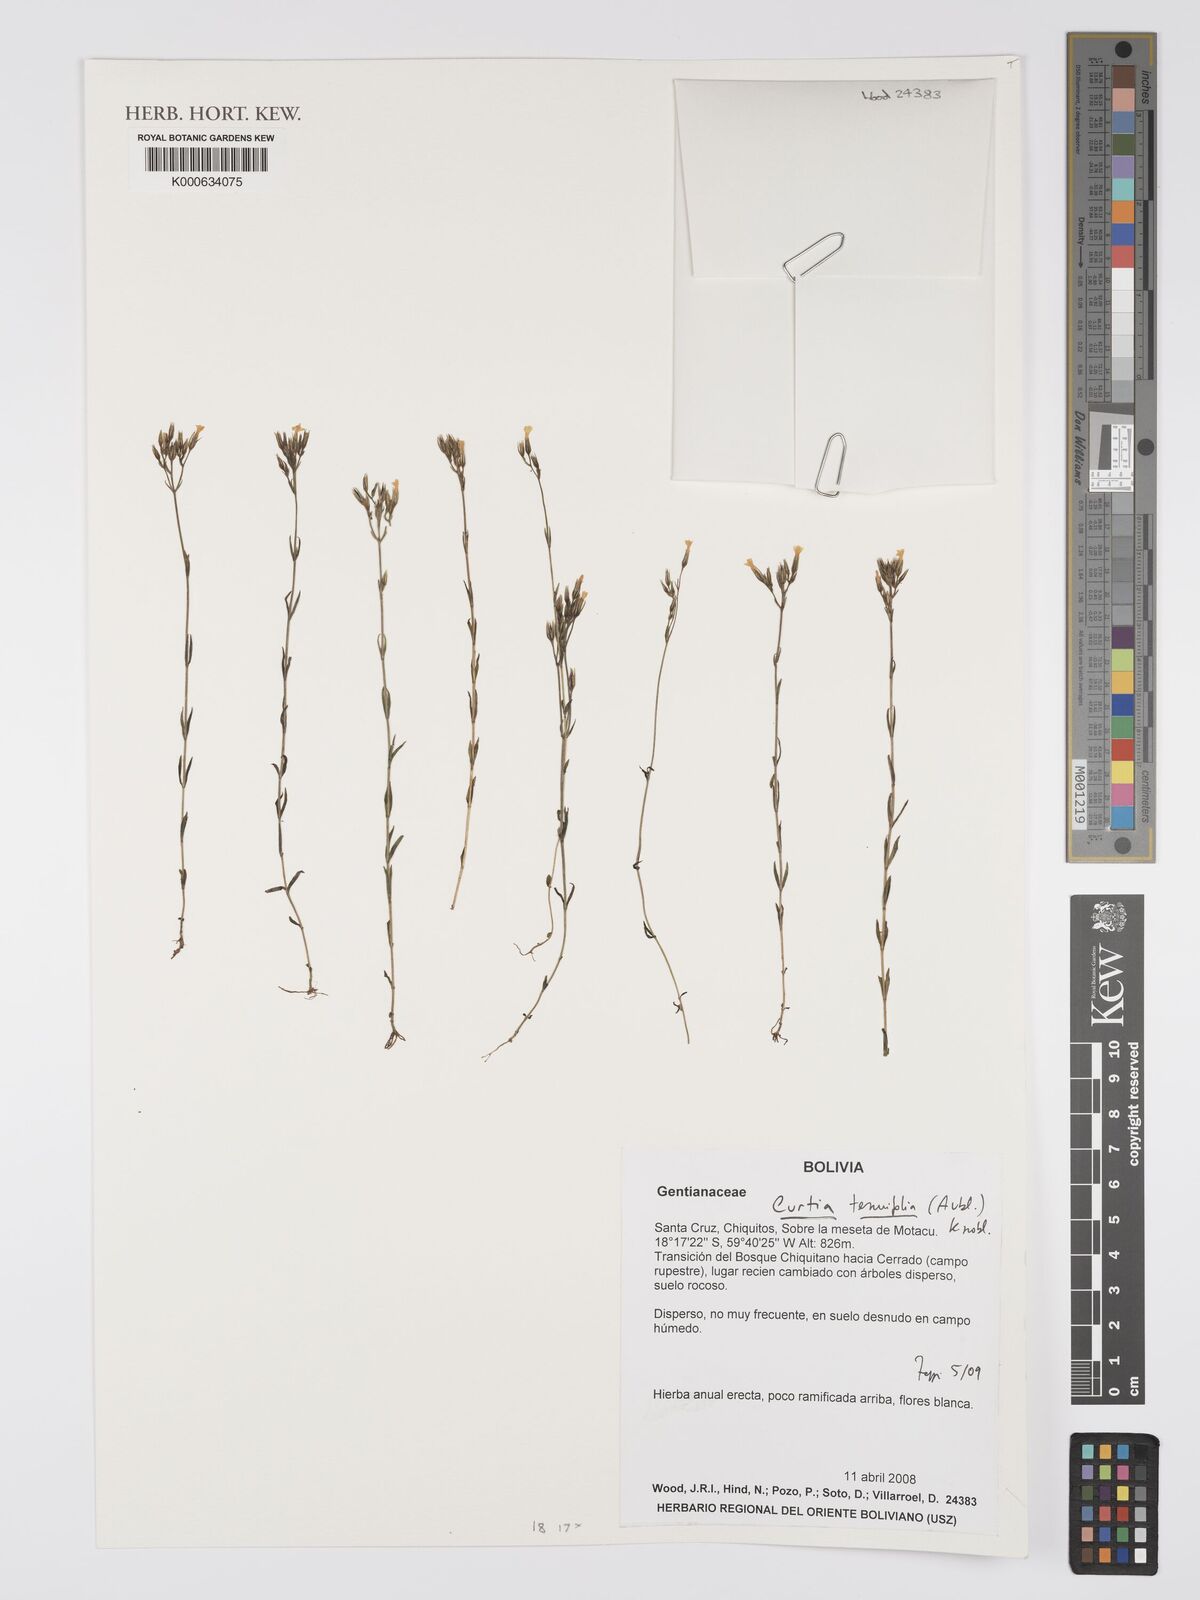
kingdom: Plantae
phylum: Tracheophyta
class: Magnoliopsida
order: Gentianales
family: Gentianaceae
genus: Curtia
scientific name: Curtia tenuifolia
